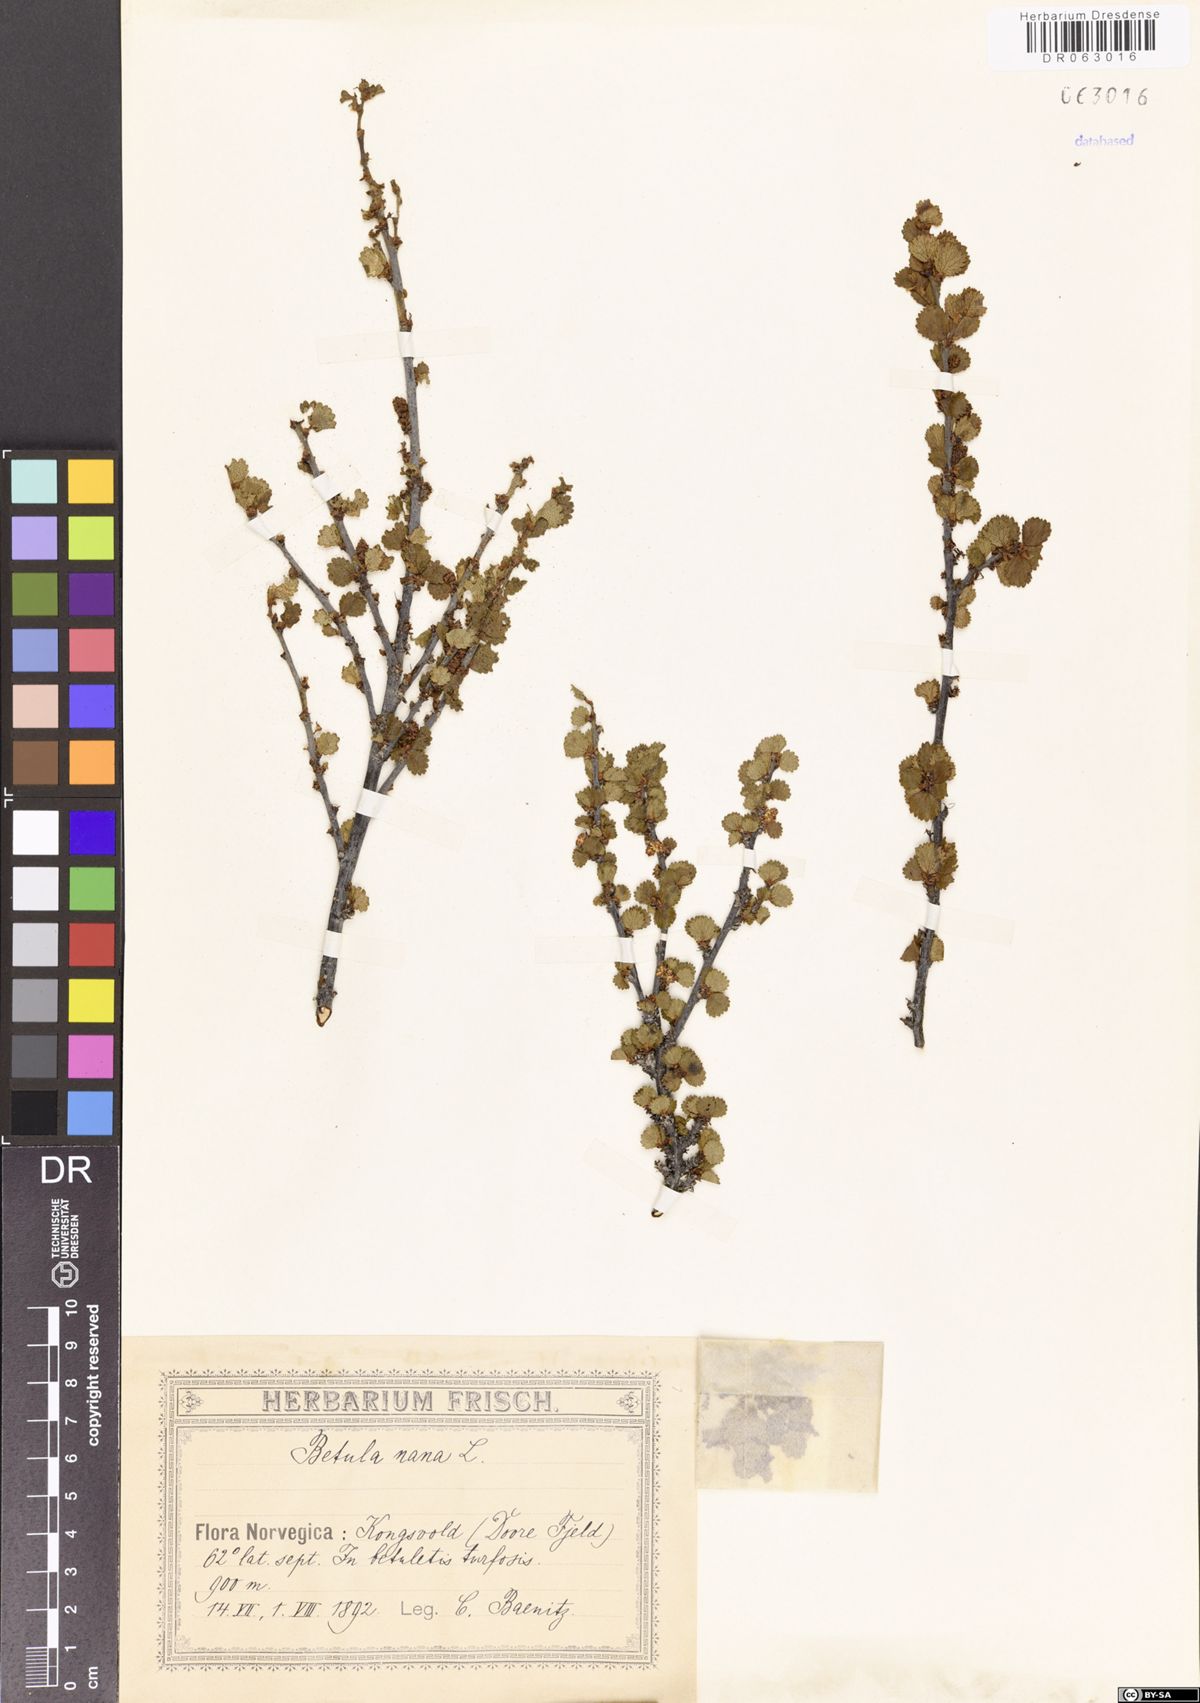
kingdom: Plantae
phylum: Tracheophyta
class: Magnoliopsida
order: Fagales
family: Betulaceae
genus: Betula
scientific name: Betula nana
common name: Arctic dwarf birch
